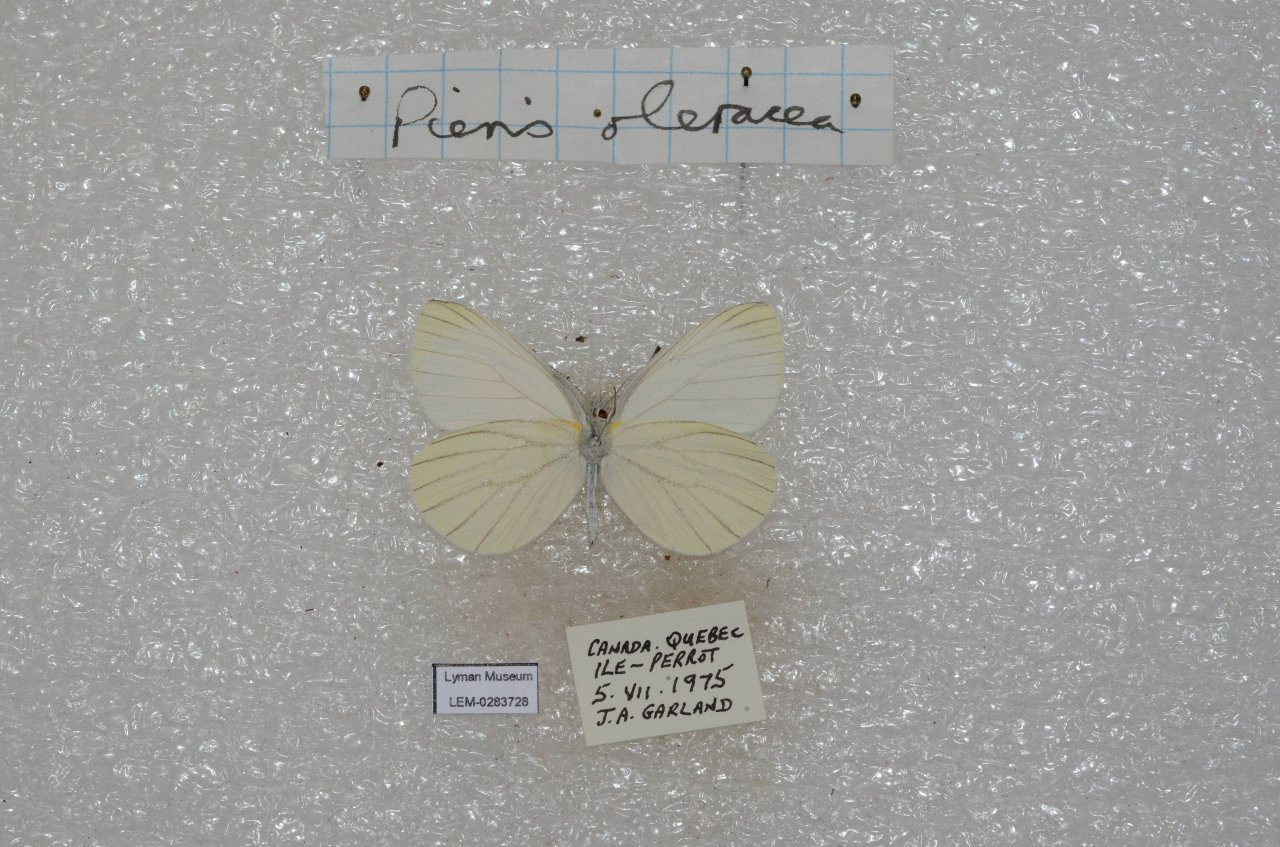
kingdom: Animalia
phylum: Arthropoda
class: Insecta
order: Lepidoptera
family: Pieridae
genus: Pieris
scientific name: Pieris oleracea
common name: Mustard White
